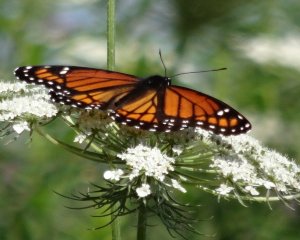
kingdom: Animalia
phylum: Arthropoda
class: Insecta
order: Lepidoptera
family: Nymphalidae
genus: Limenitis
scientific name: Limenitis archippus
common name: Viceroy
